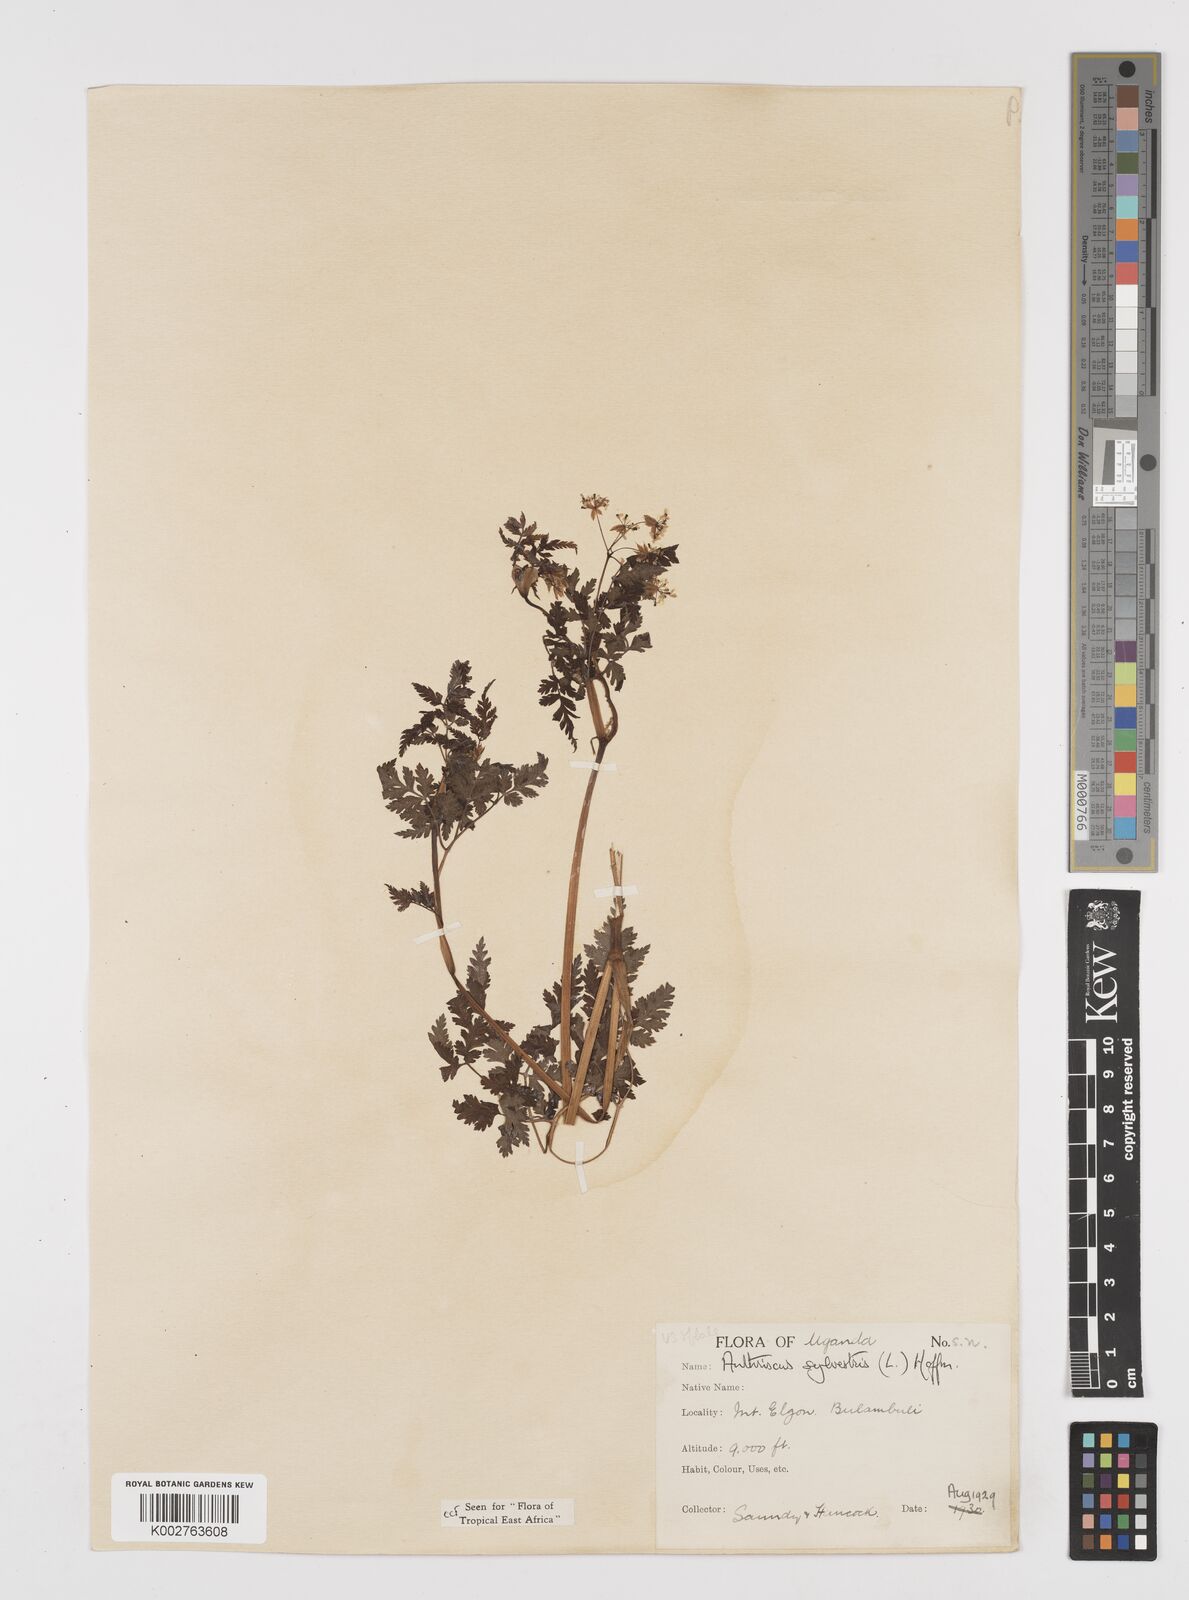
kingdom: Plantae
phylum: Tracheophyta
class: Magnoliopsida
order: Apiales
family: Apiaceae
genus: Anthriscus
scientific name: Anthriscus sylvestris
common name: Cow parsley
